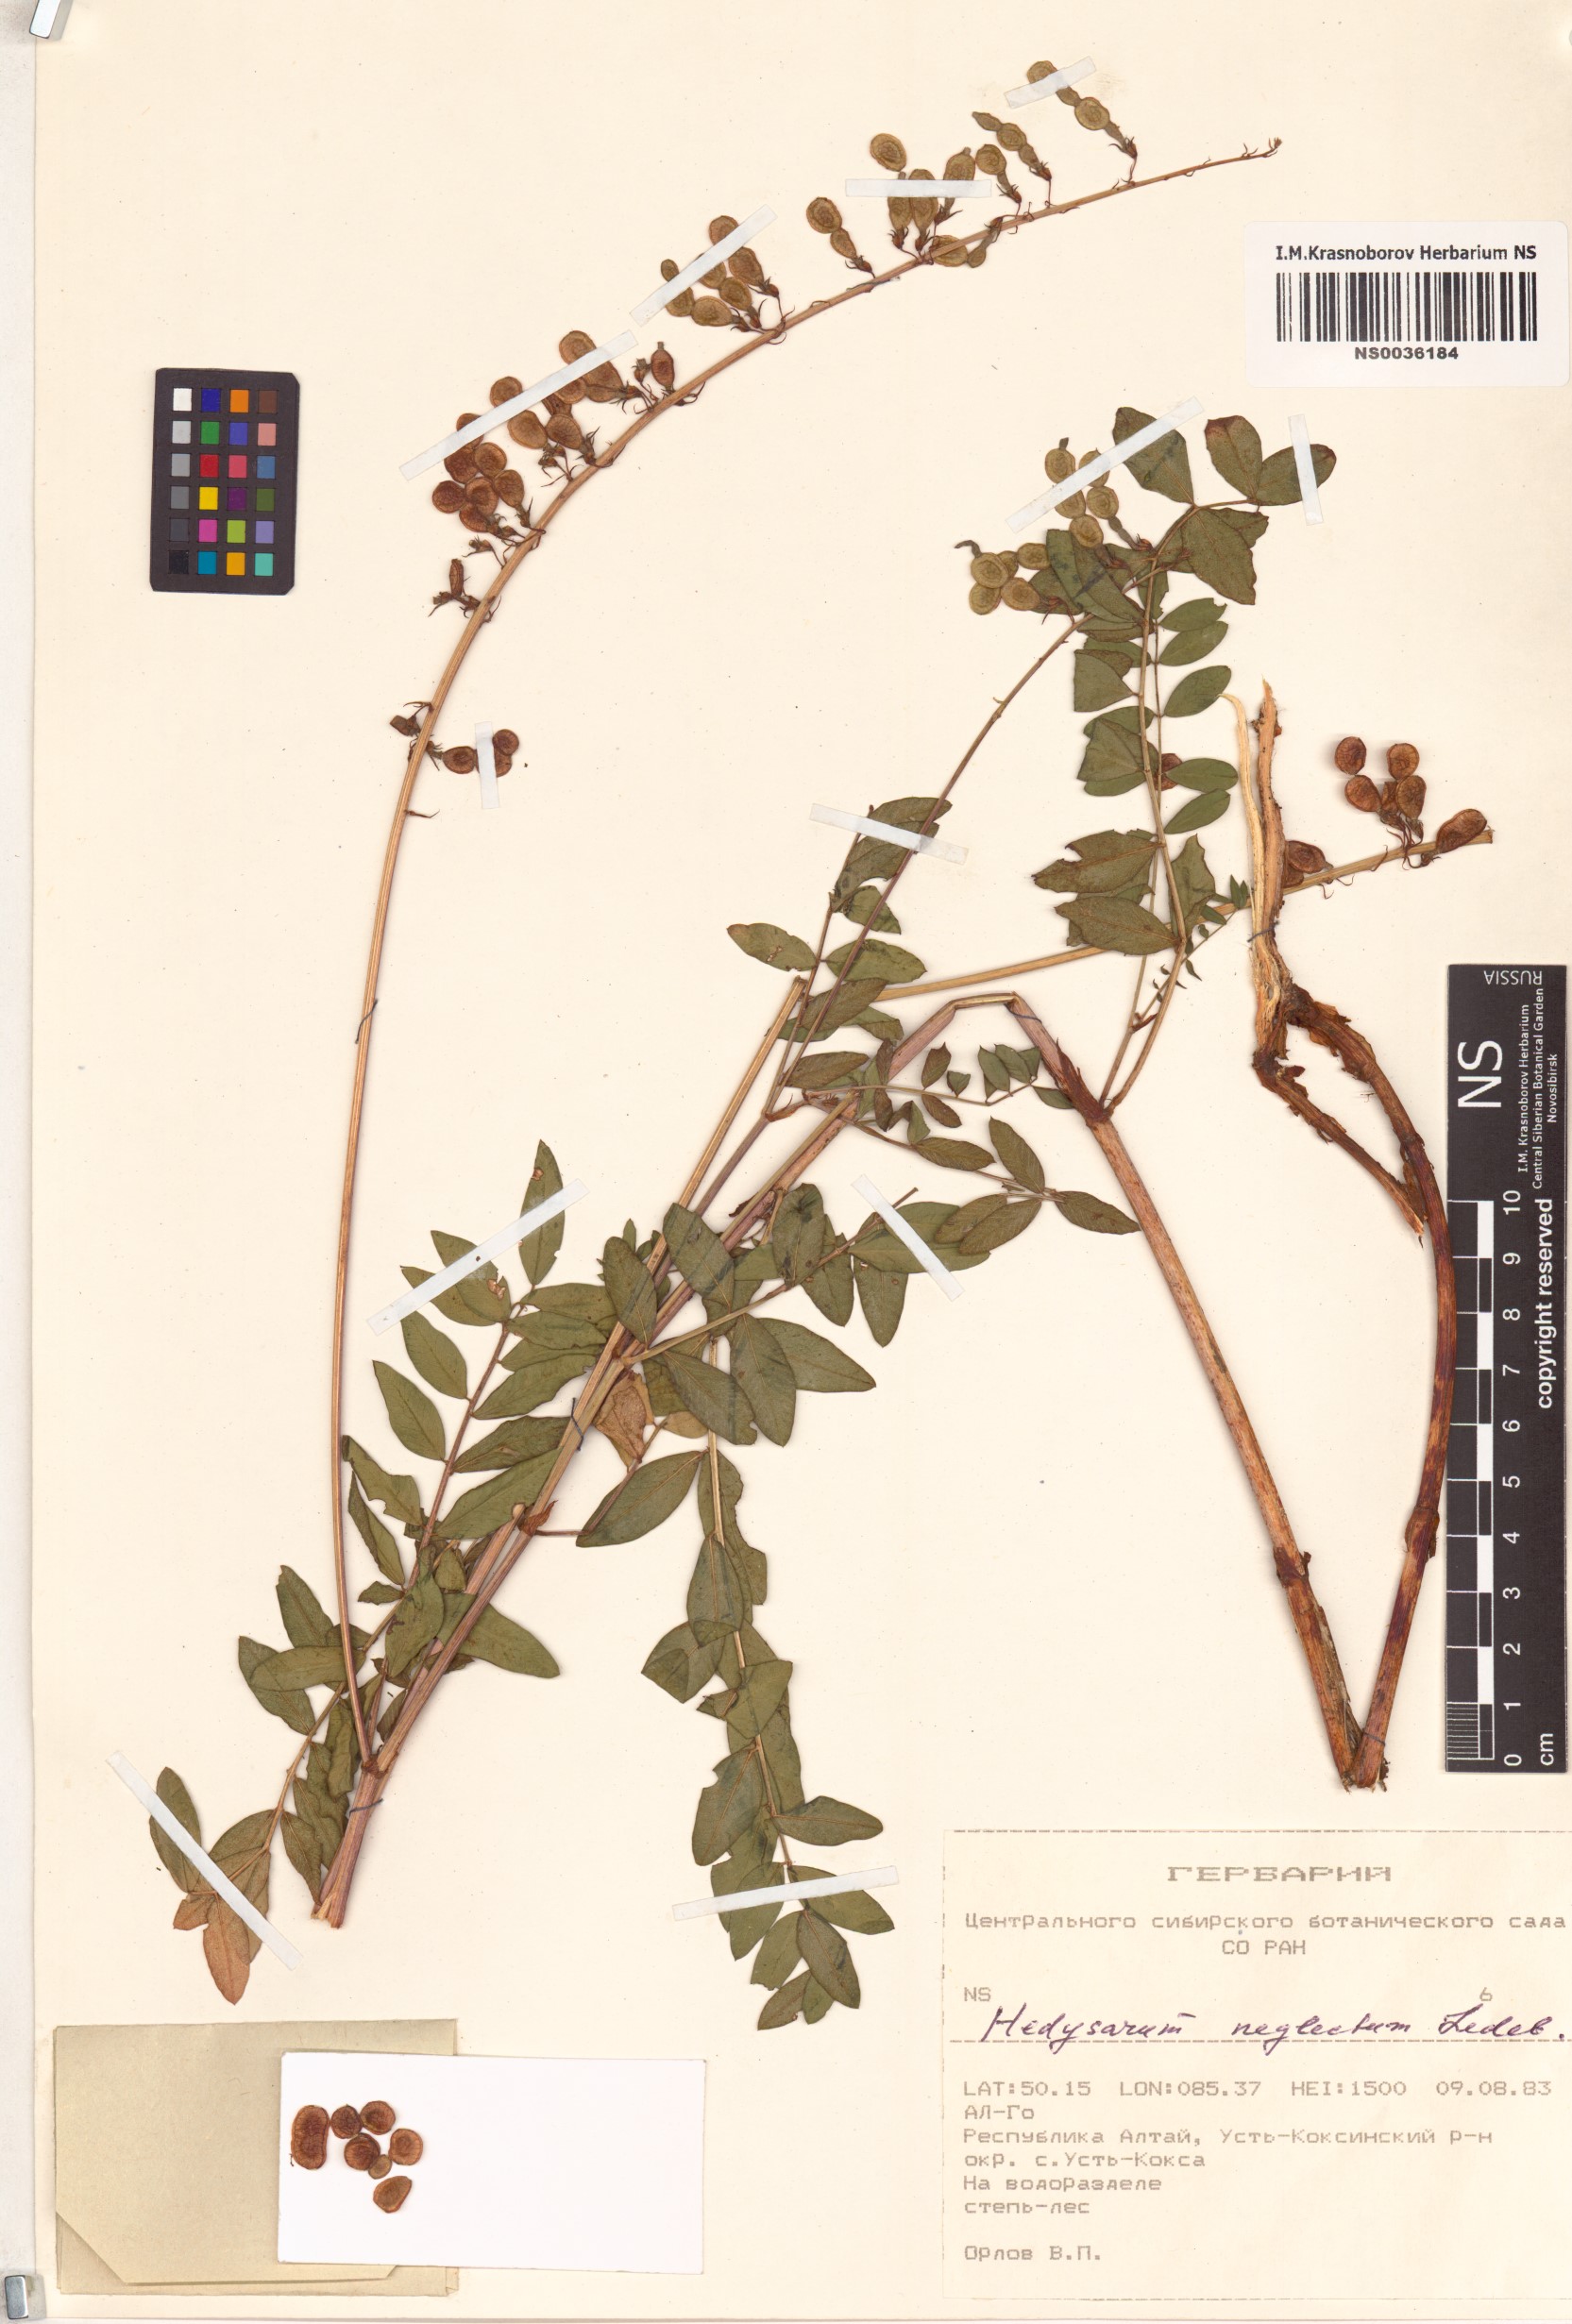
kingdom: Plantae
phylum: Tracheophyta
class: Magnoliopsida
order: Fabales
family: Fabaceae
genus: Hedysarum
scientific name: Hedysarum neglectum
